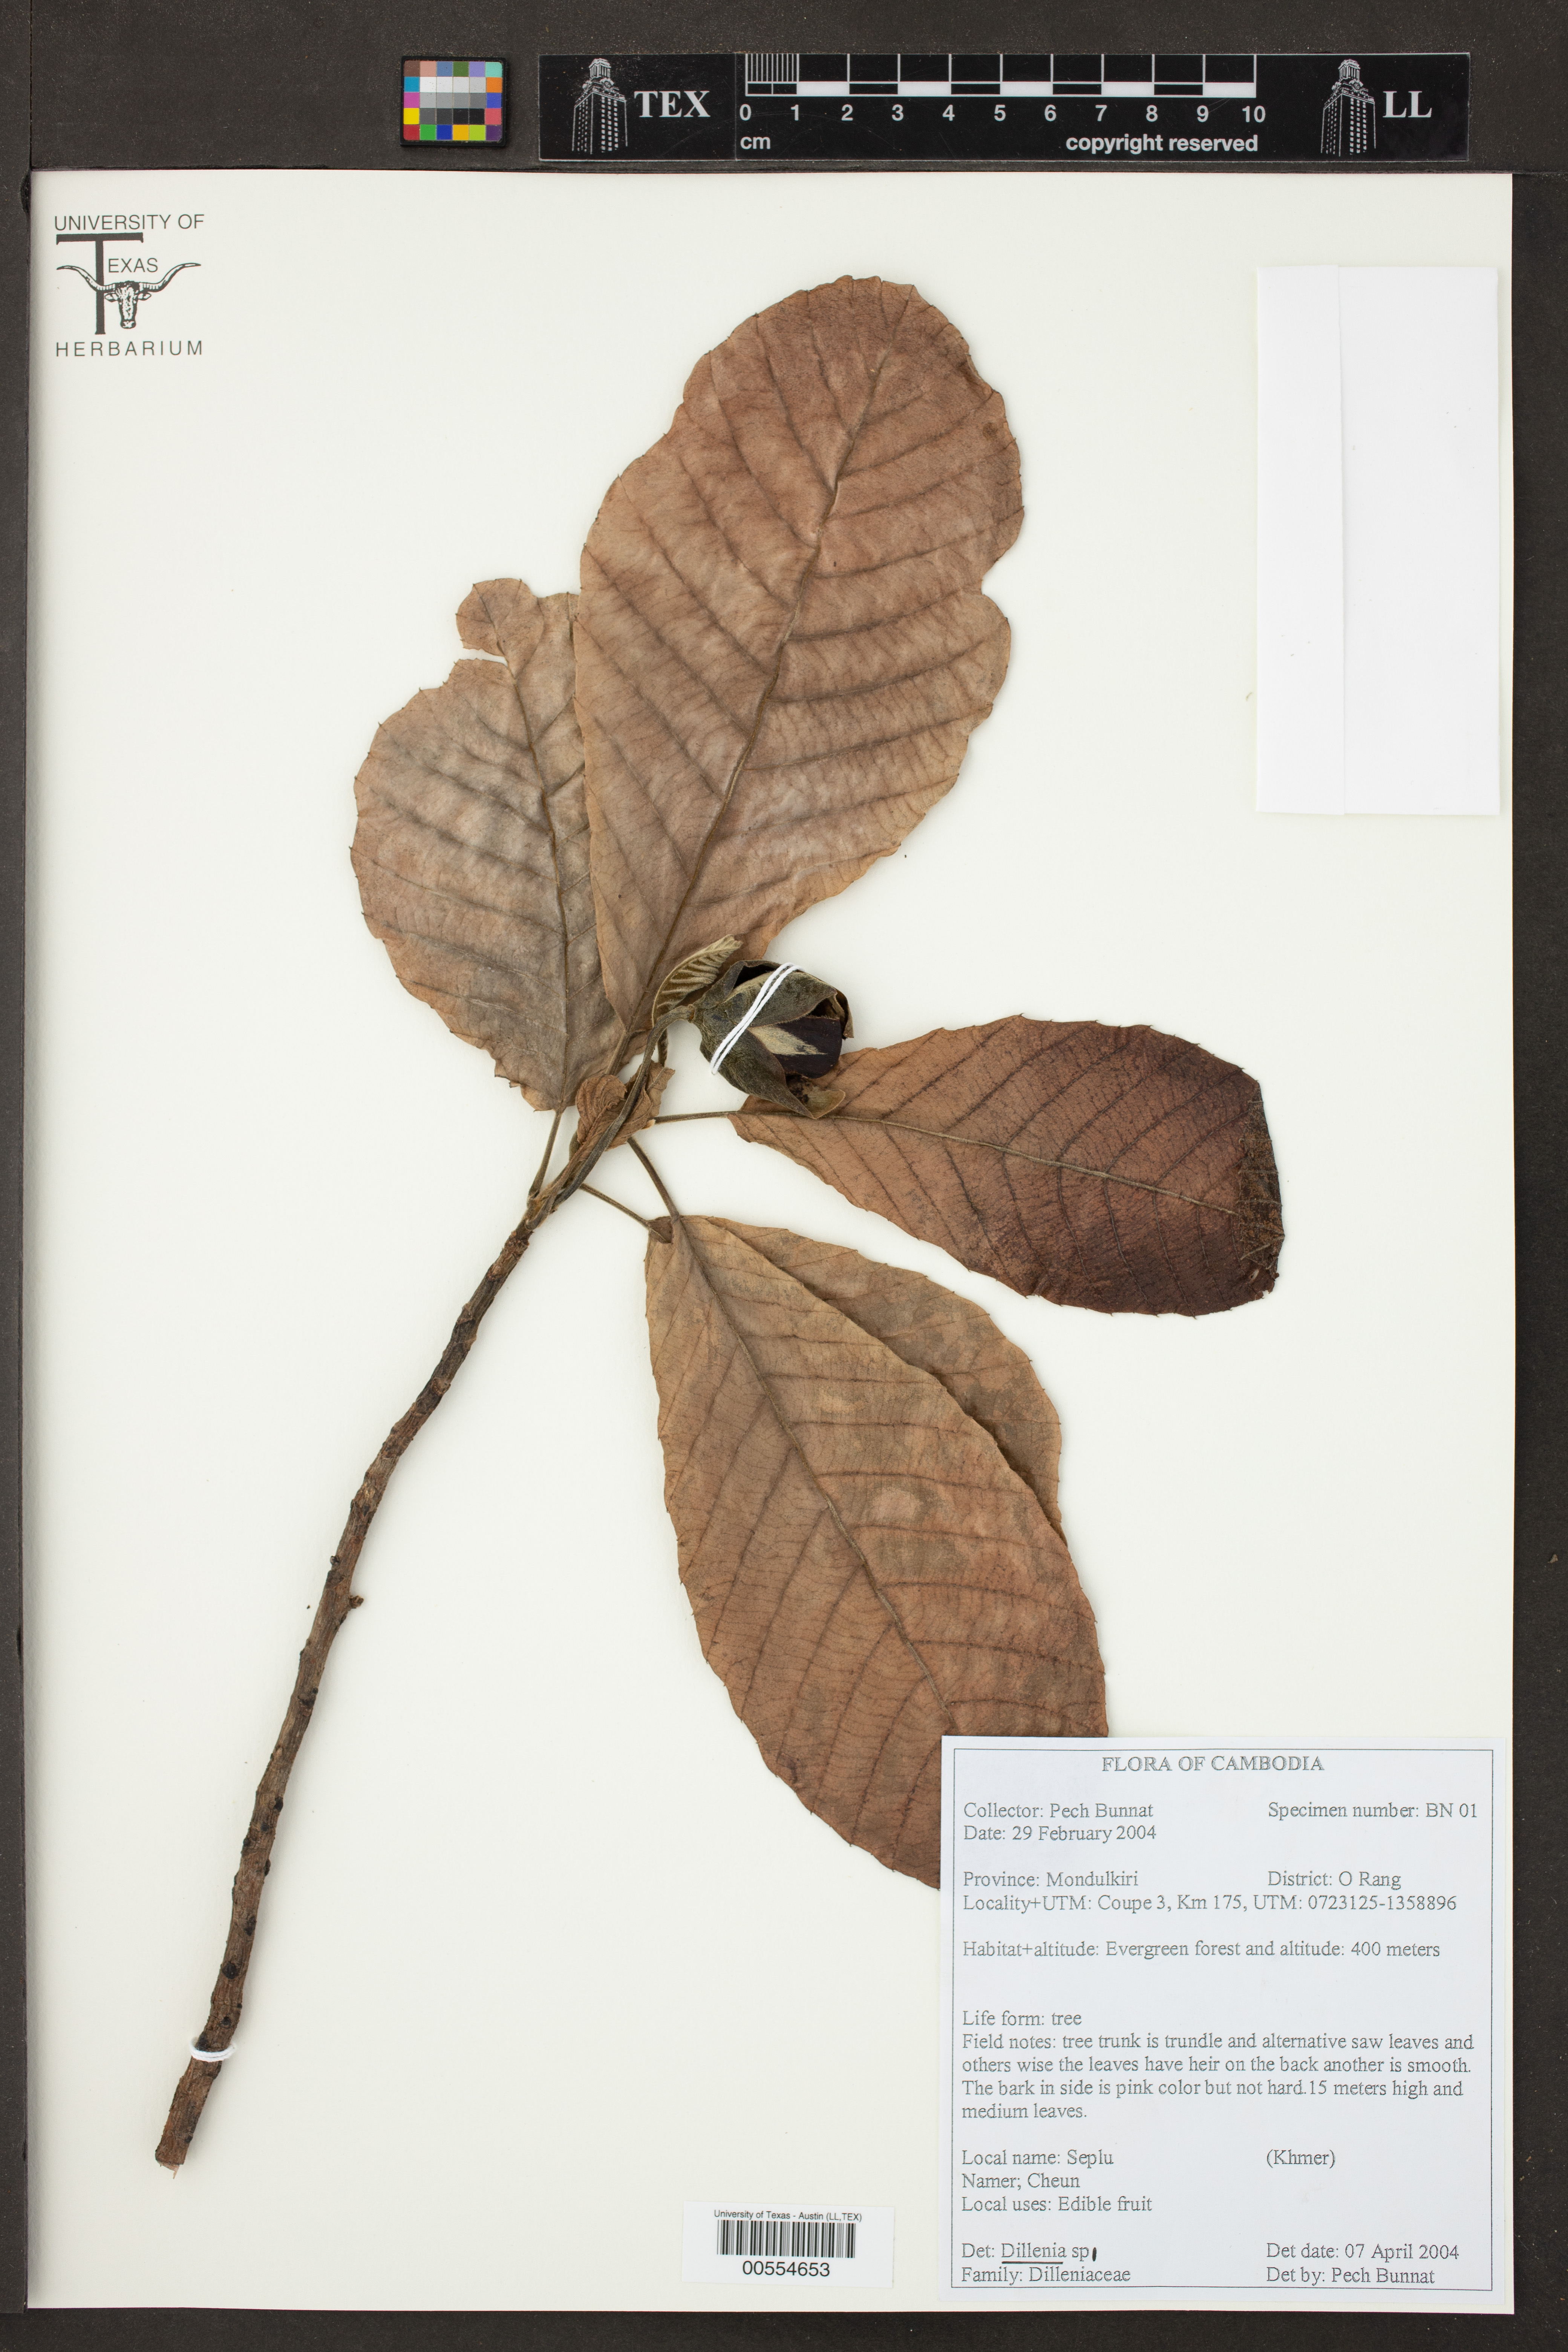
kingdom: Plantae
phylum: Tracheophyta
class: Magnoliopsida
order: Dilleniales
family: Dilleniaceae
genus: Dillenia
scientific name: Dillenia
